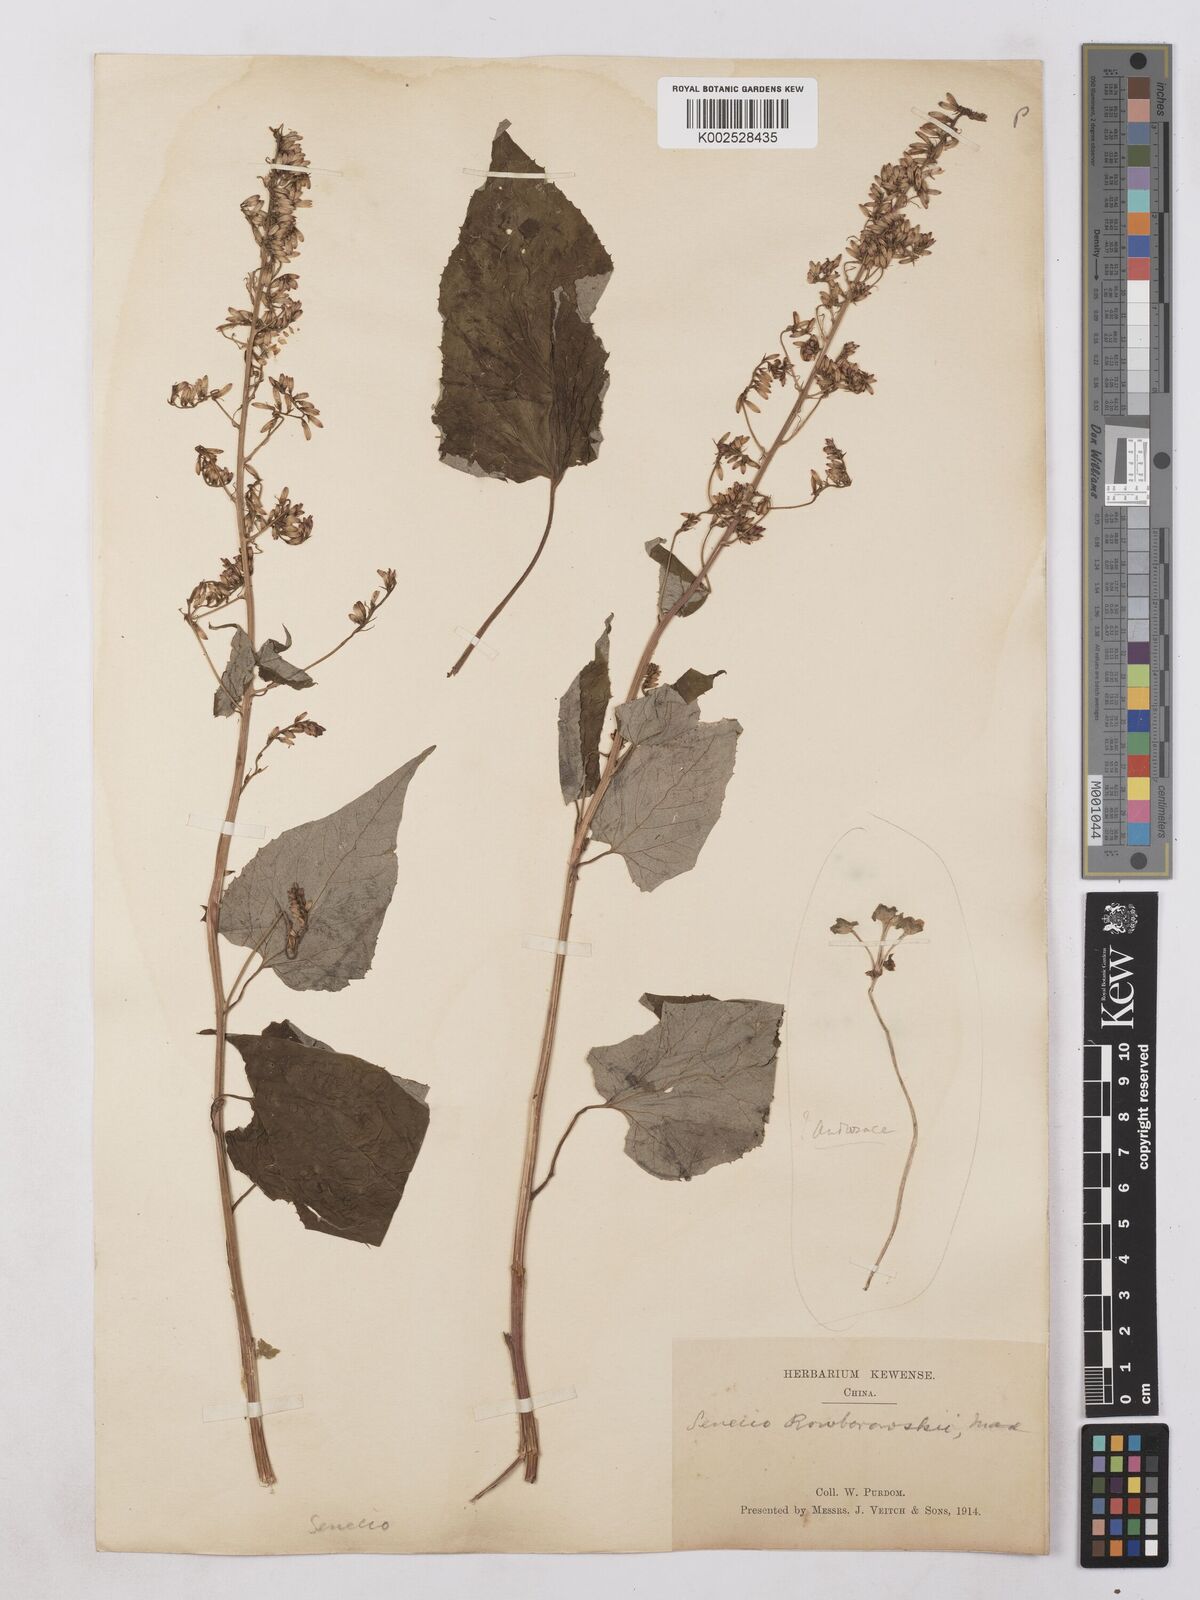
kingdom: Plantae
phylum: Tracheophyta
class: Magnoliopsida
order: Asterales
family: Asteraceae
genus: Parasenecio
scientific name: Parasenecio roborowskii
